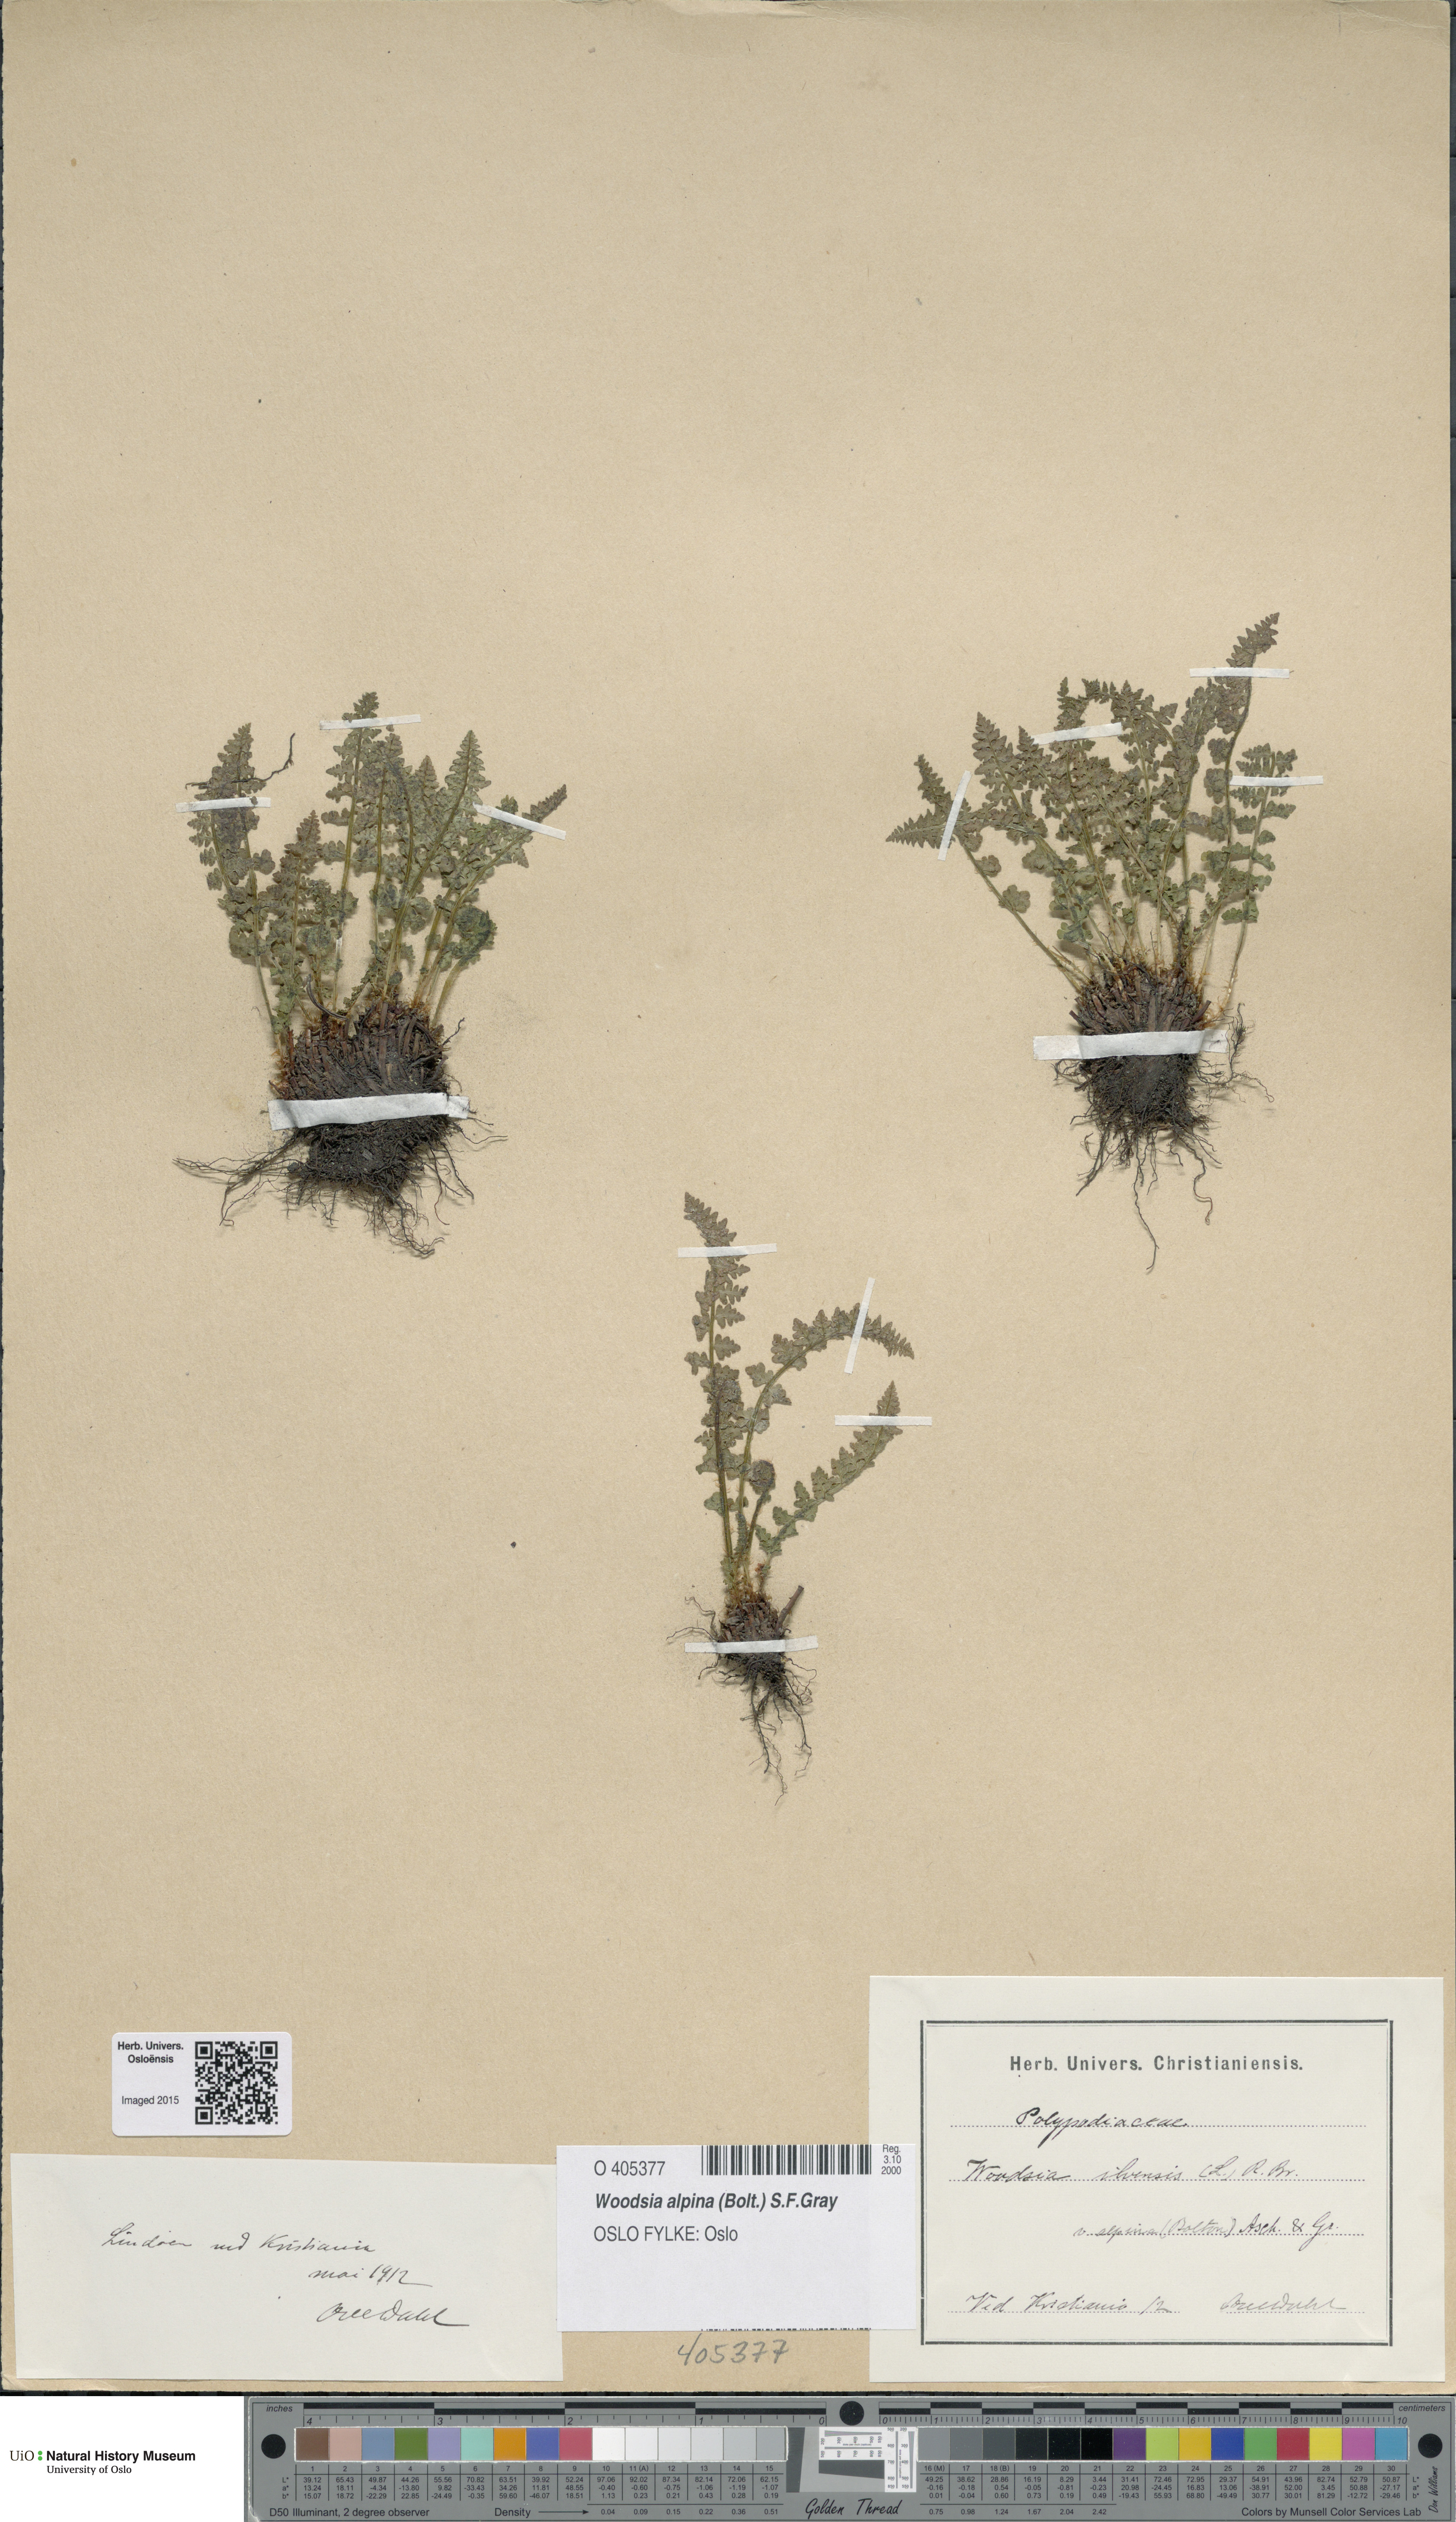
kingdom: Plantae
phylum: Tracheophyta
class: Polypodiopsida
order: Polypodiales
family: Woodsiaceae
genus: Woodsia
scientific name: Woodsia alpina
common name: Alpine woodsia
